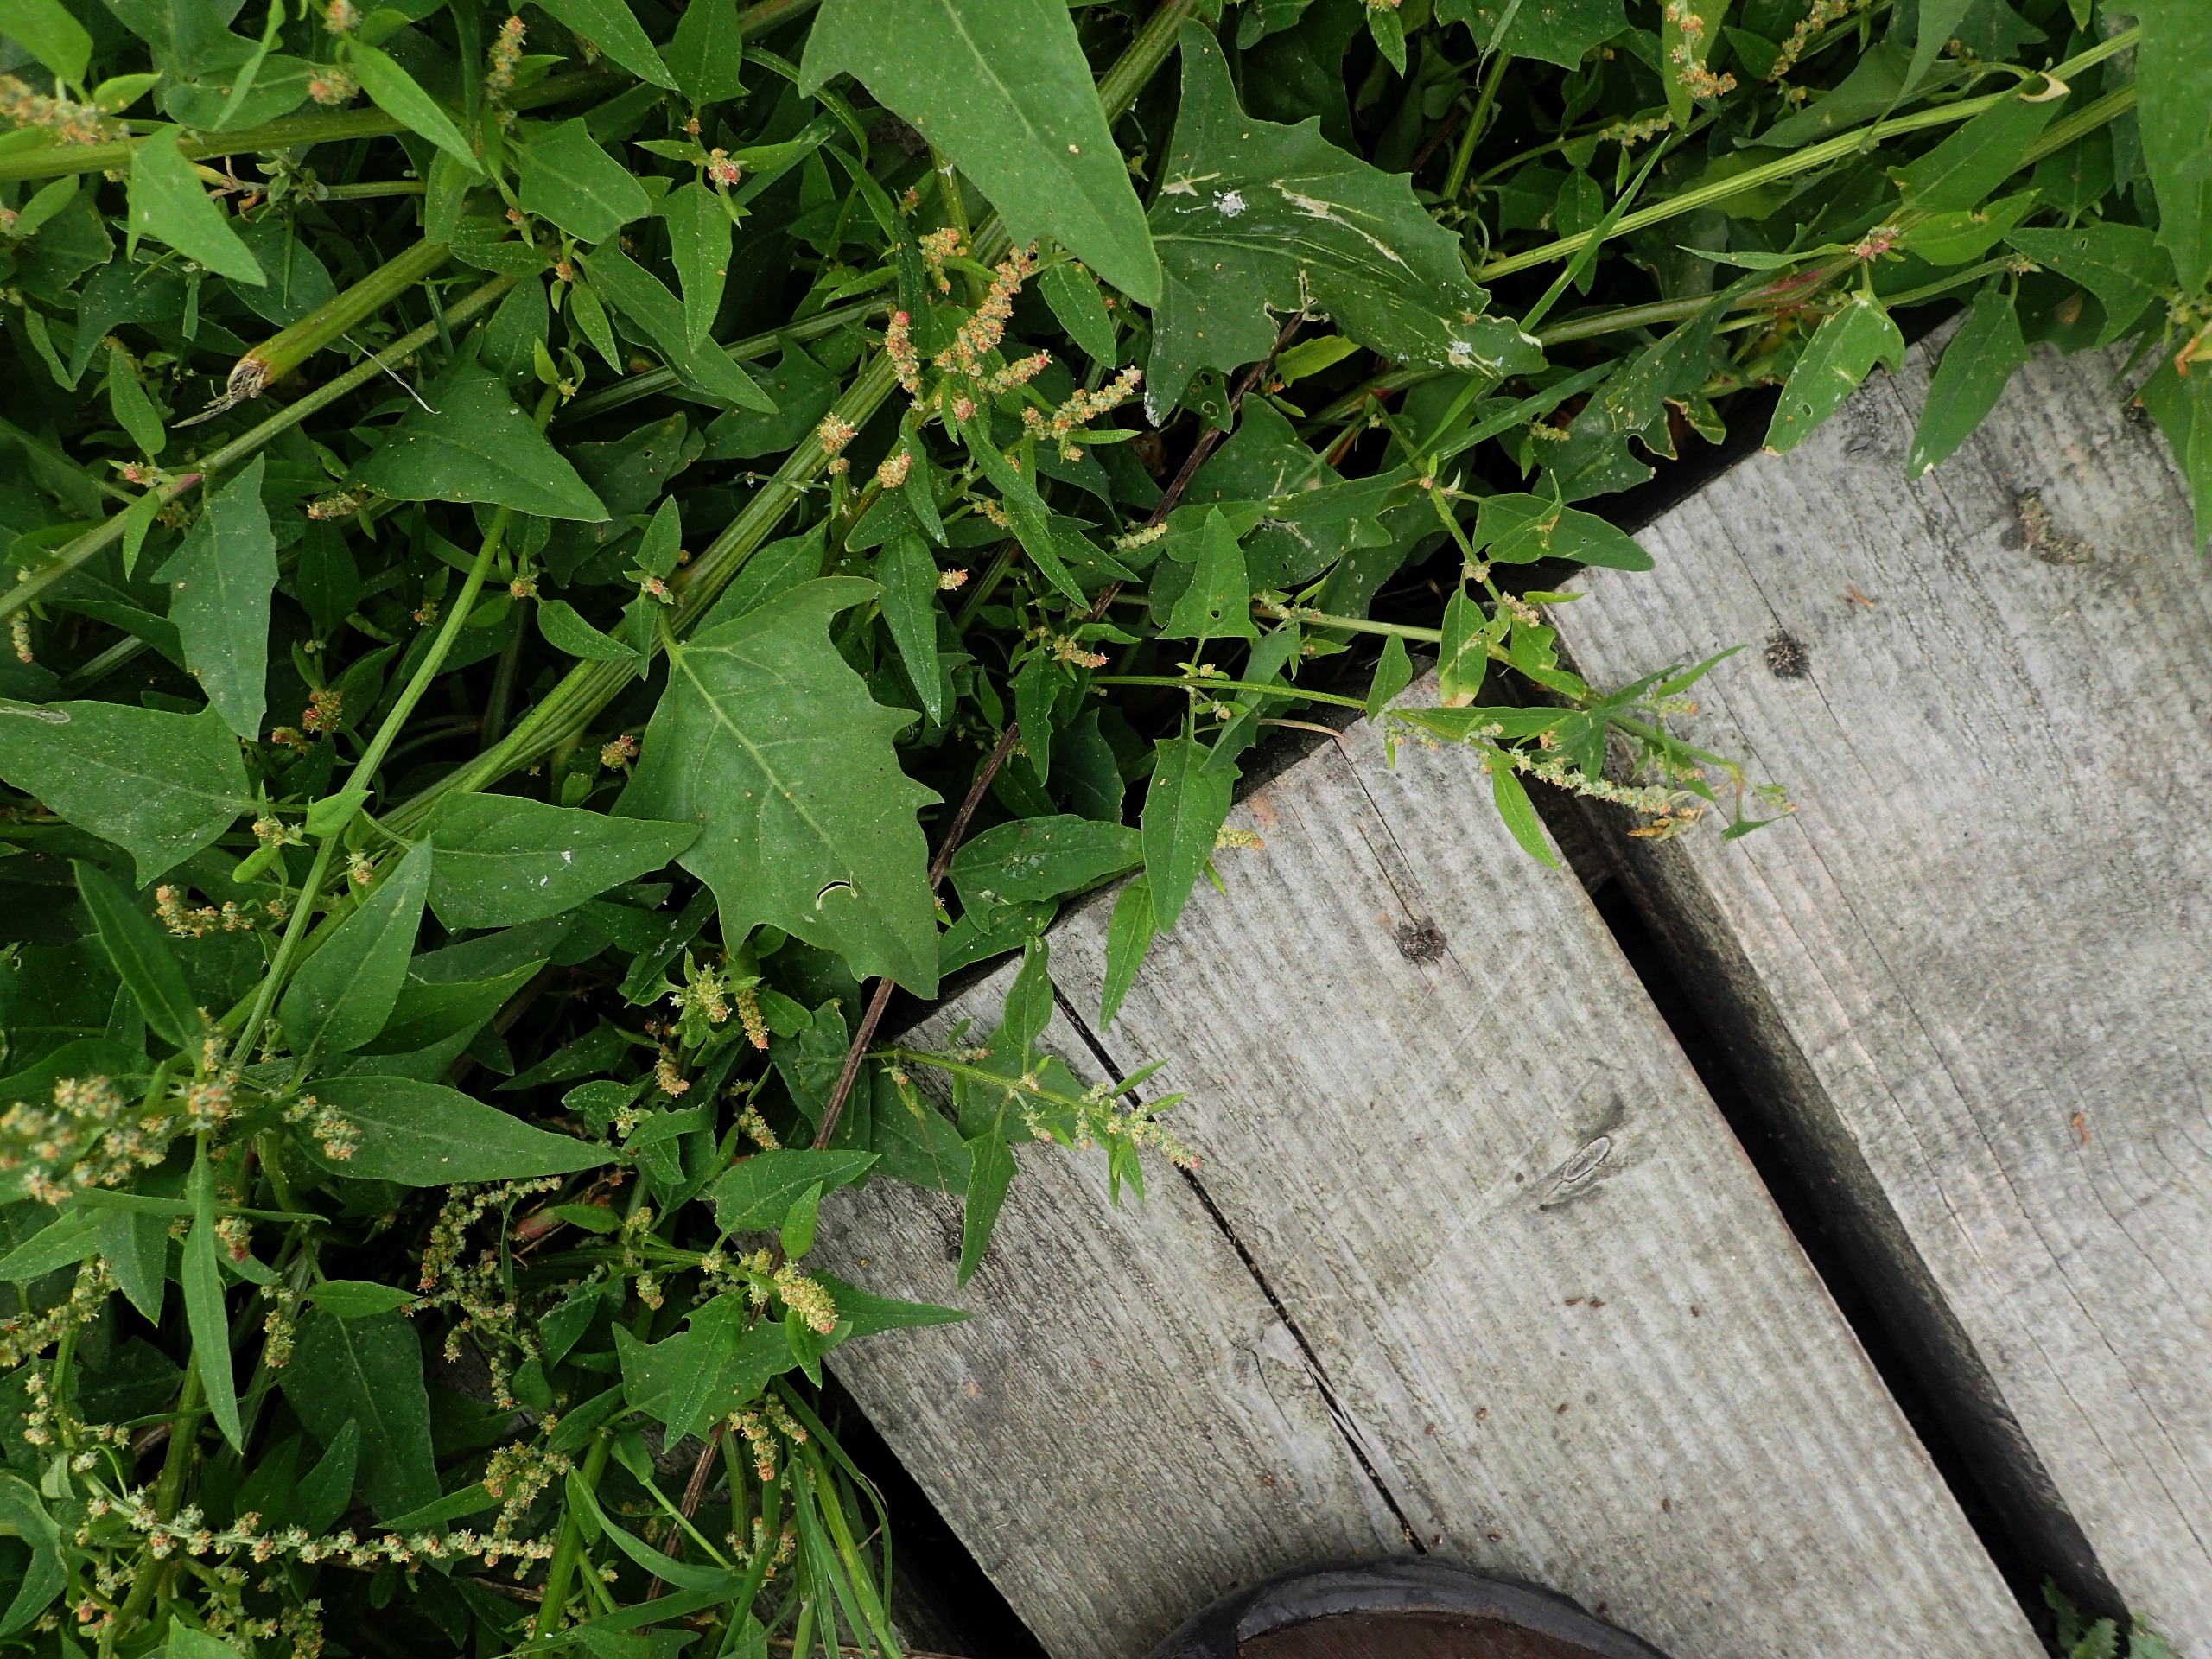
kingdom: Plantae
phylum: Tracheophyta
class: Magnoliopsida
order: Caryophyllales
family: Amaranthaceae
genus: Atriplex
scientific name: Atriplex prostrata
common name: Spyd-mælde
